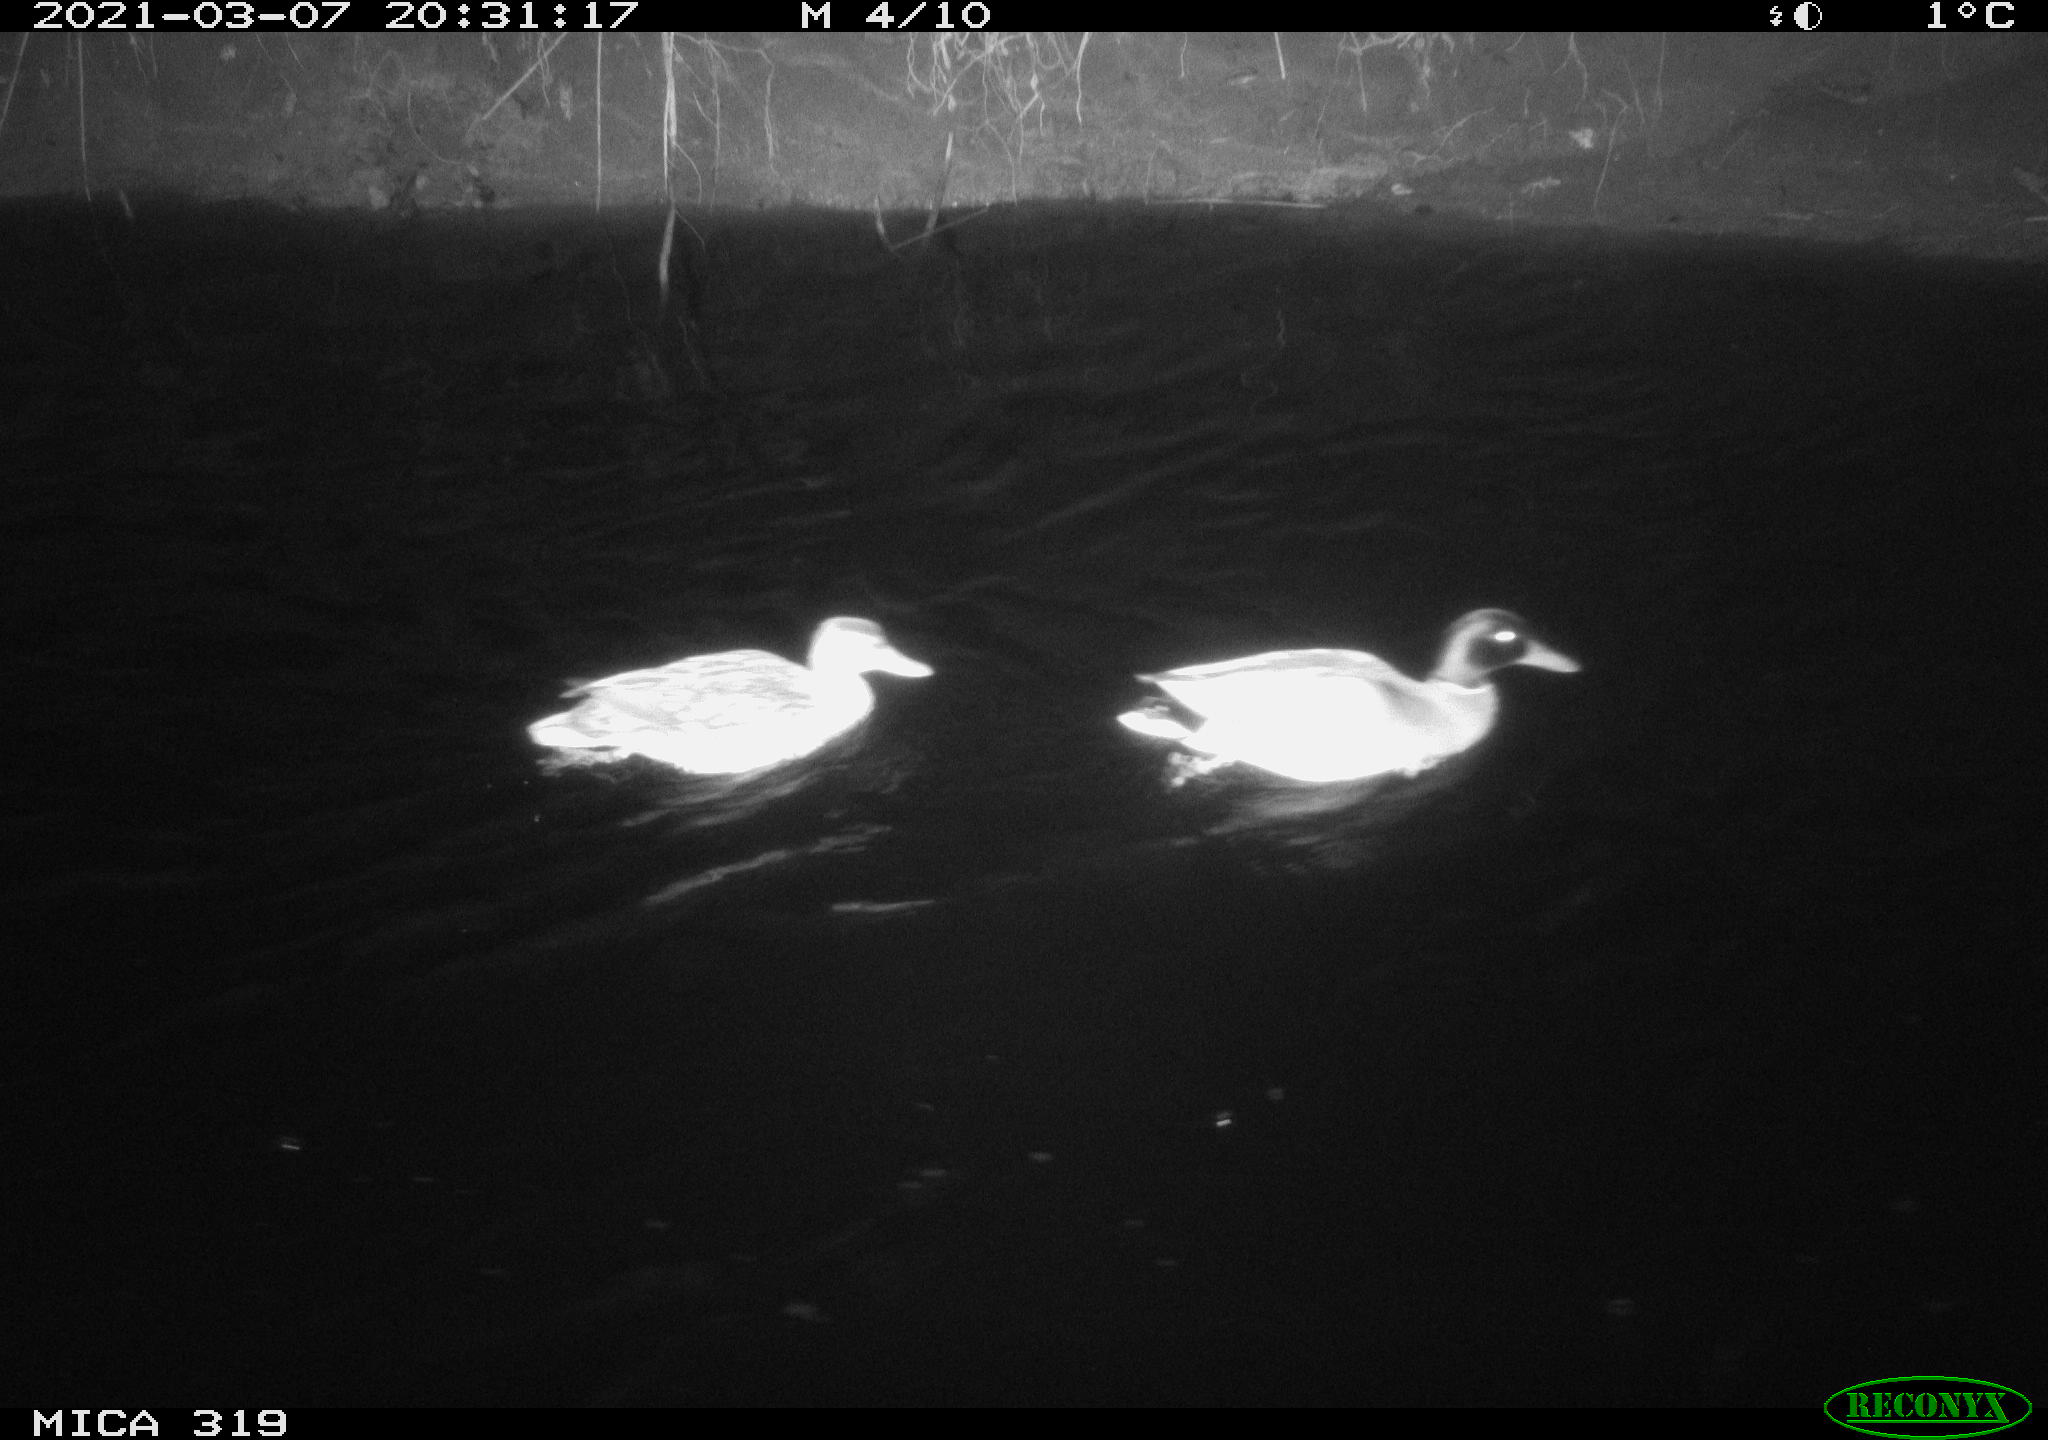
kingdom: Animalia
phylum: Chordata
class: Aves
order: Anseriformes
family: Anatidae
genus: Anas
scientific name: Anas platyrhynchos
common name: Mallard
